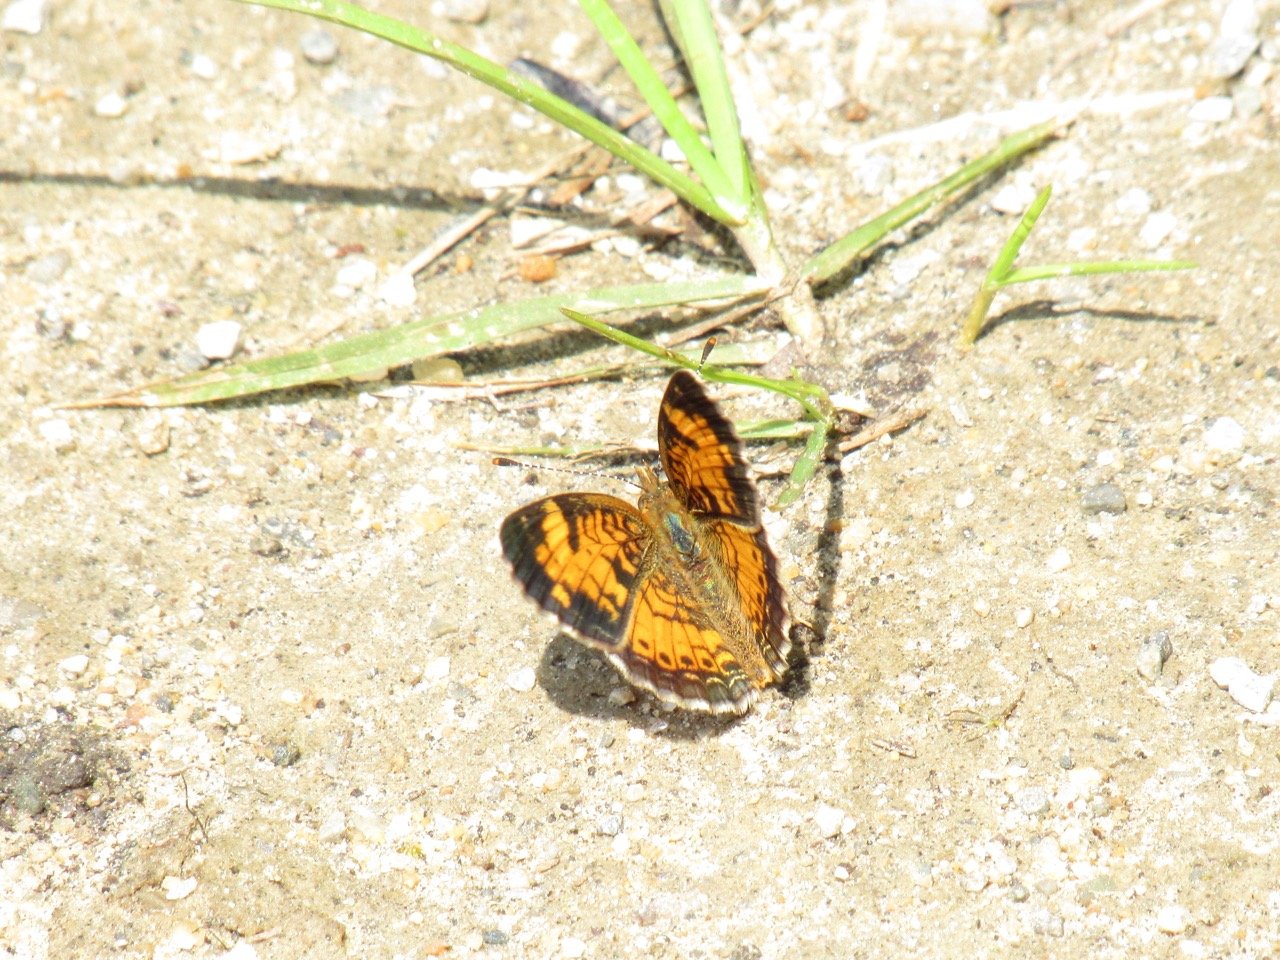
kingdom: Animalia
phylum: Arthropoda
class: Insecta
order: Lepidoptera
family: Nymphalidae
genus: Phyciodes
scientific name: Phyciodes tharos
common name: Pearl Crescent
